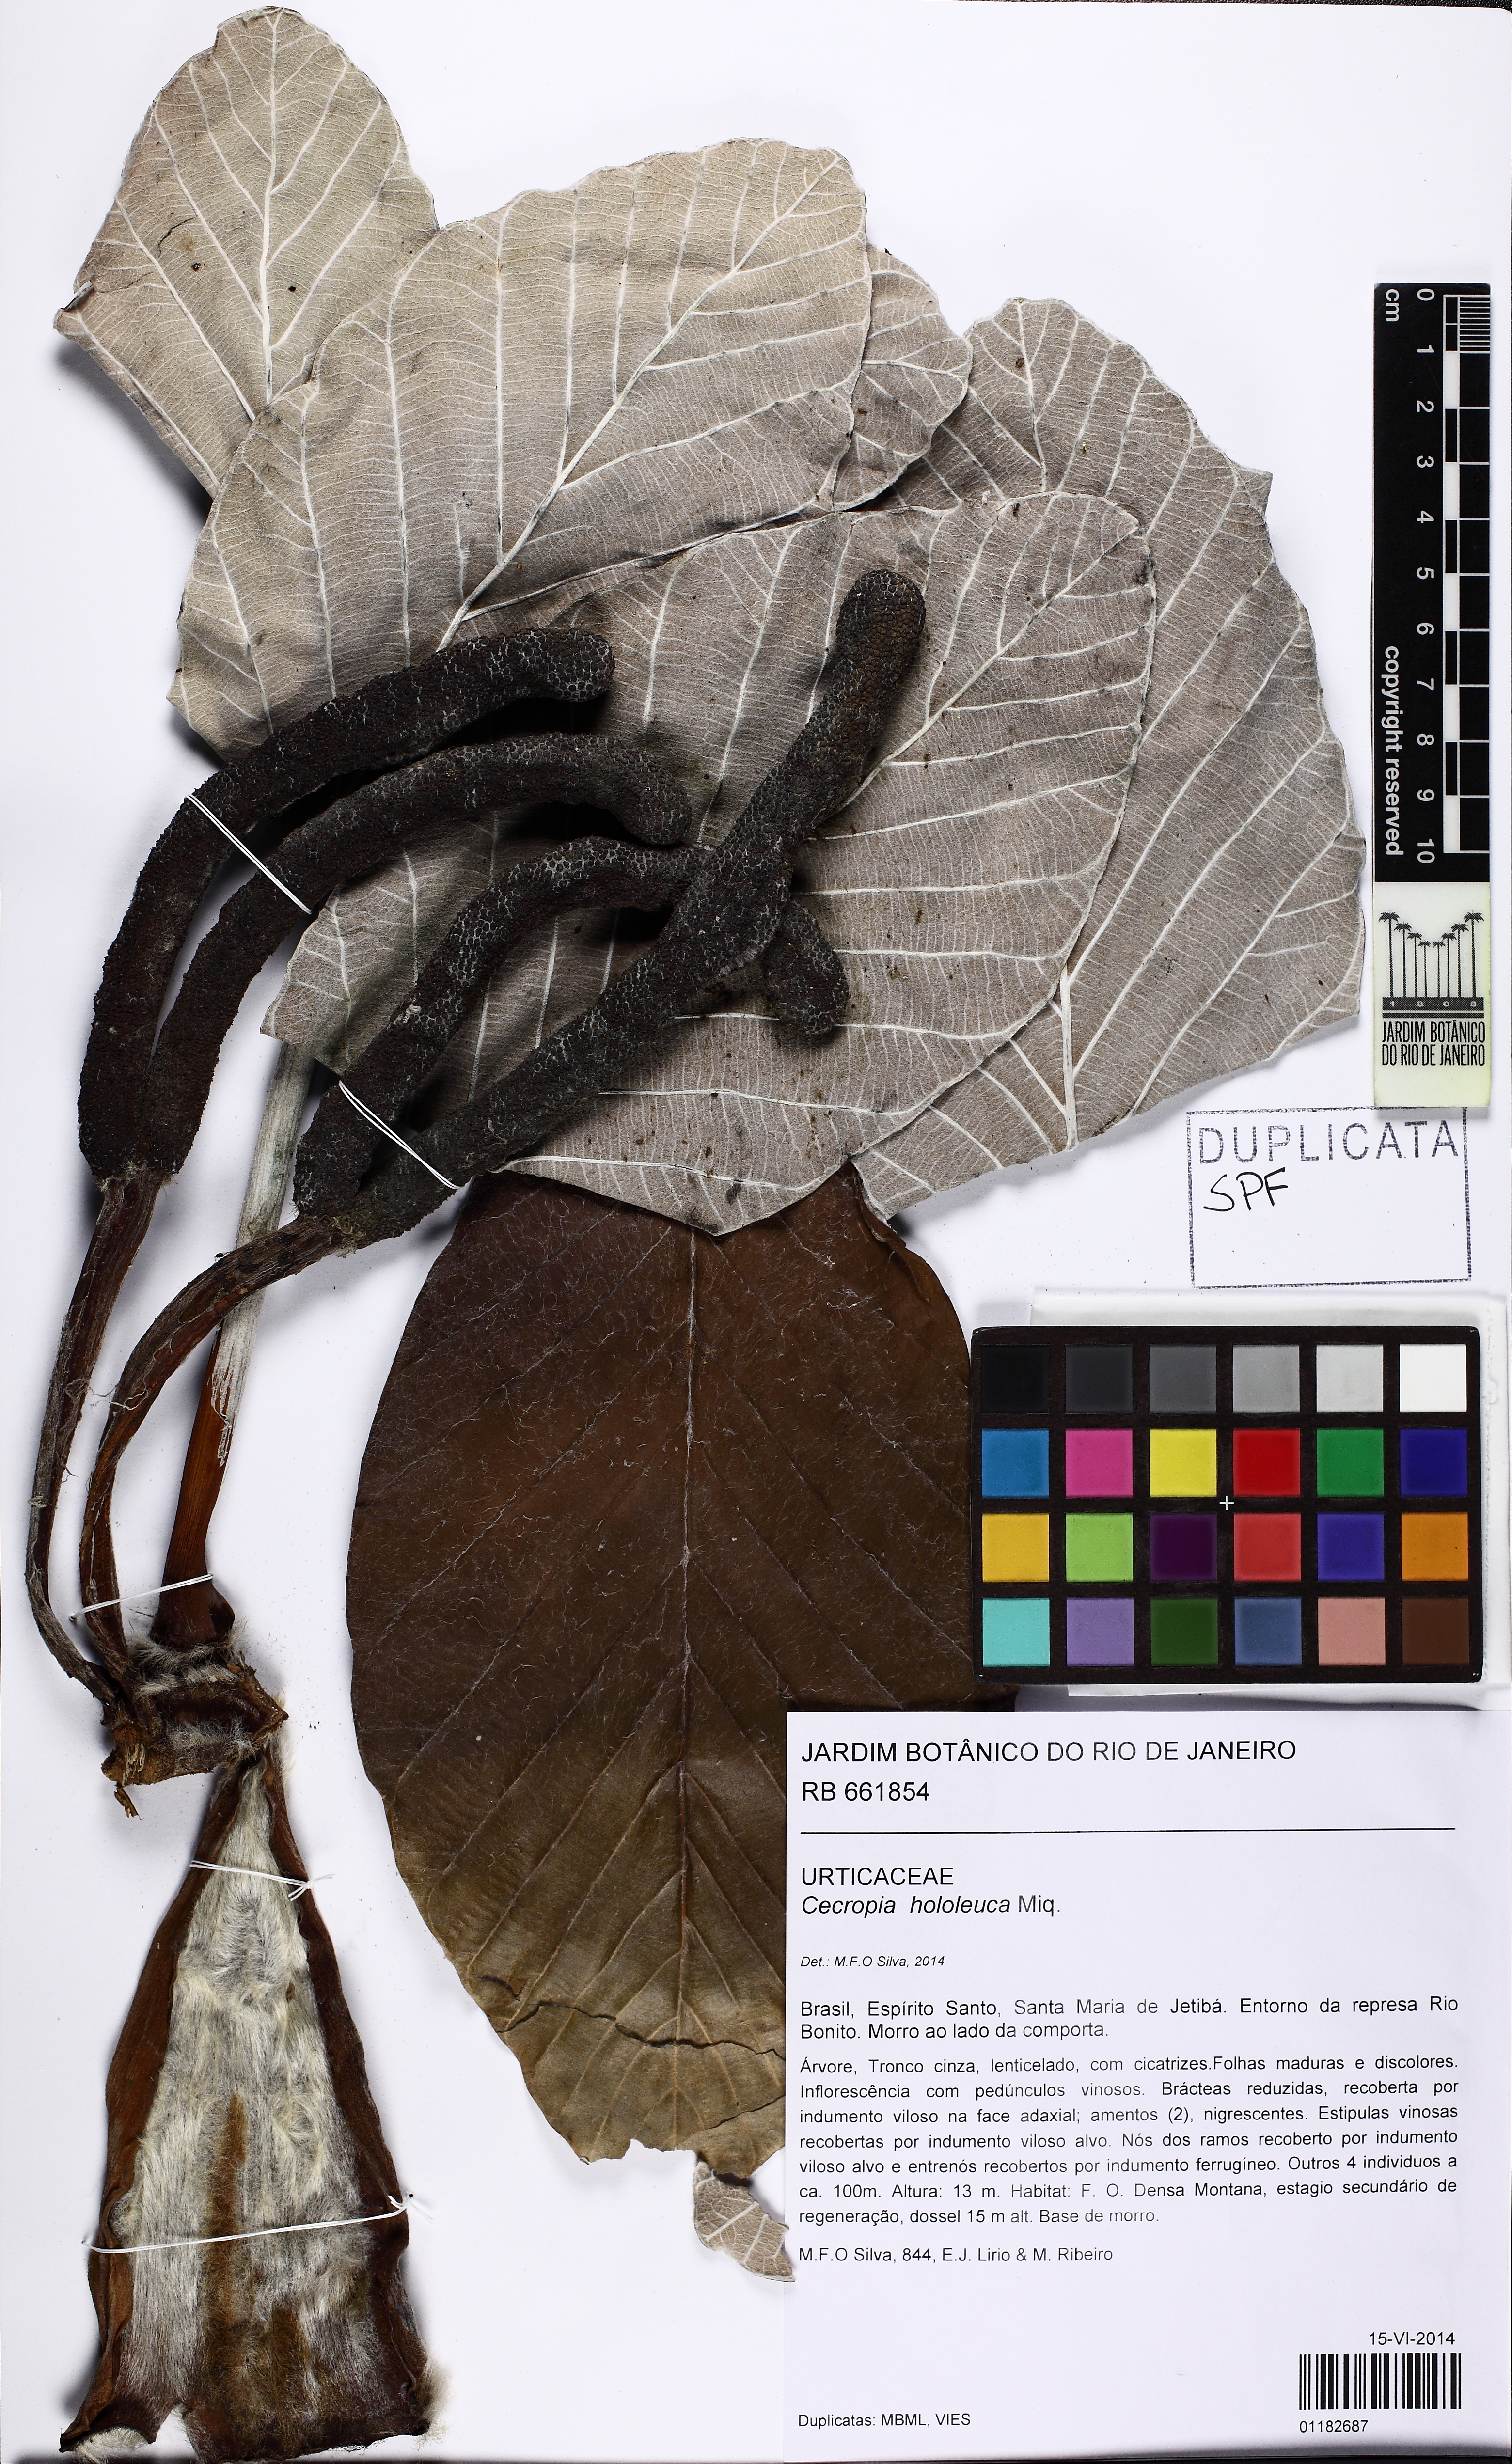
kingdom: Plantae
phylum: Tracheophyta
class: Magnoliopsida
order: Rosales
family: Urticaceae
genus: Cecropia
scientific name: Cecropia hololeuca
